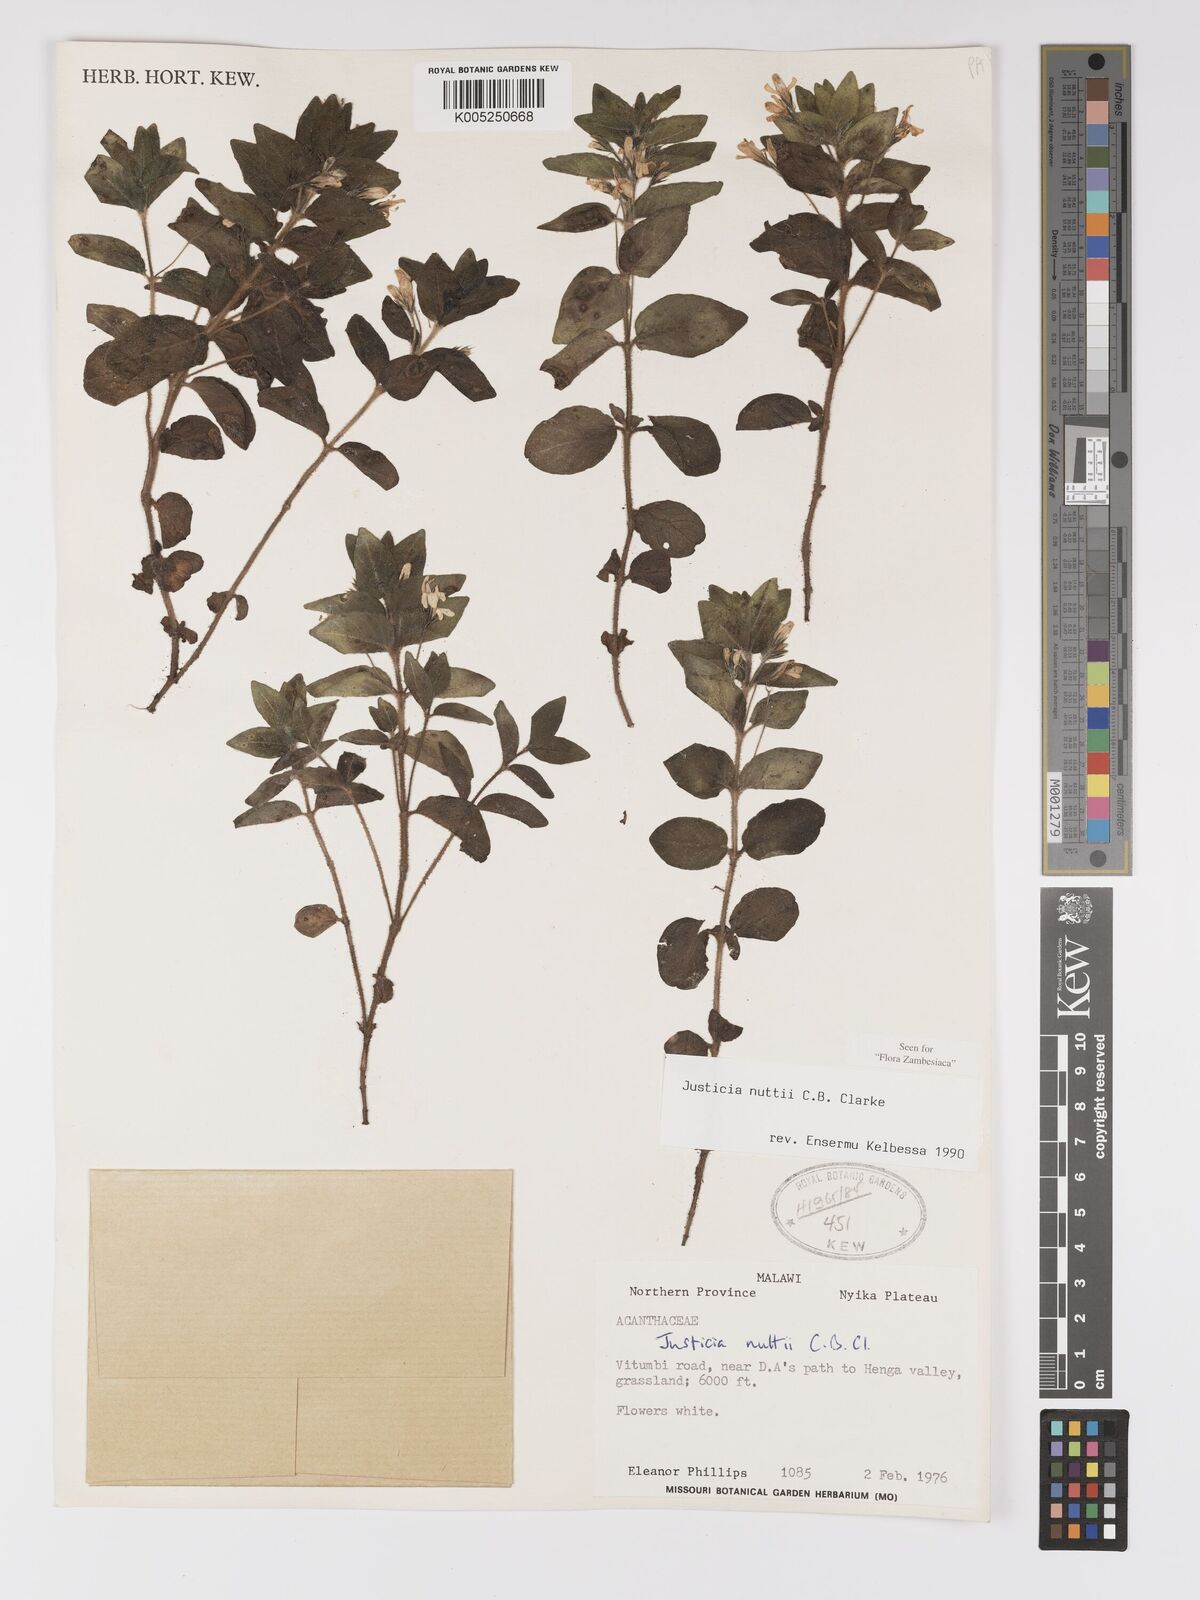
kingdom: Plantae
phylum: Tracheophyta
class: Magnoliopsida
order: Lamiales
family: Acanthaceae
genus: Justicia
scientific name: Justicia nuttii
